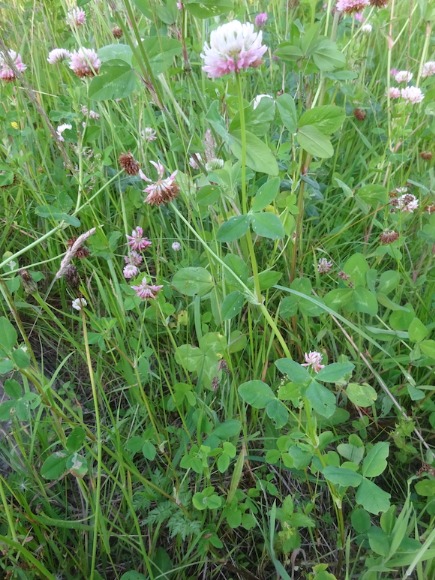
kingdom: Plantae
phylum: Tracheophyta
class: Magnoliopsida
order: Fabales
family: Fabaceae
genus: Trifolium
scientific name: Trifolium hybridum
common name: Alsike-kløver
